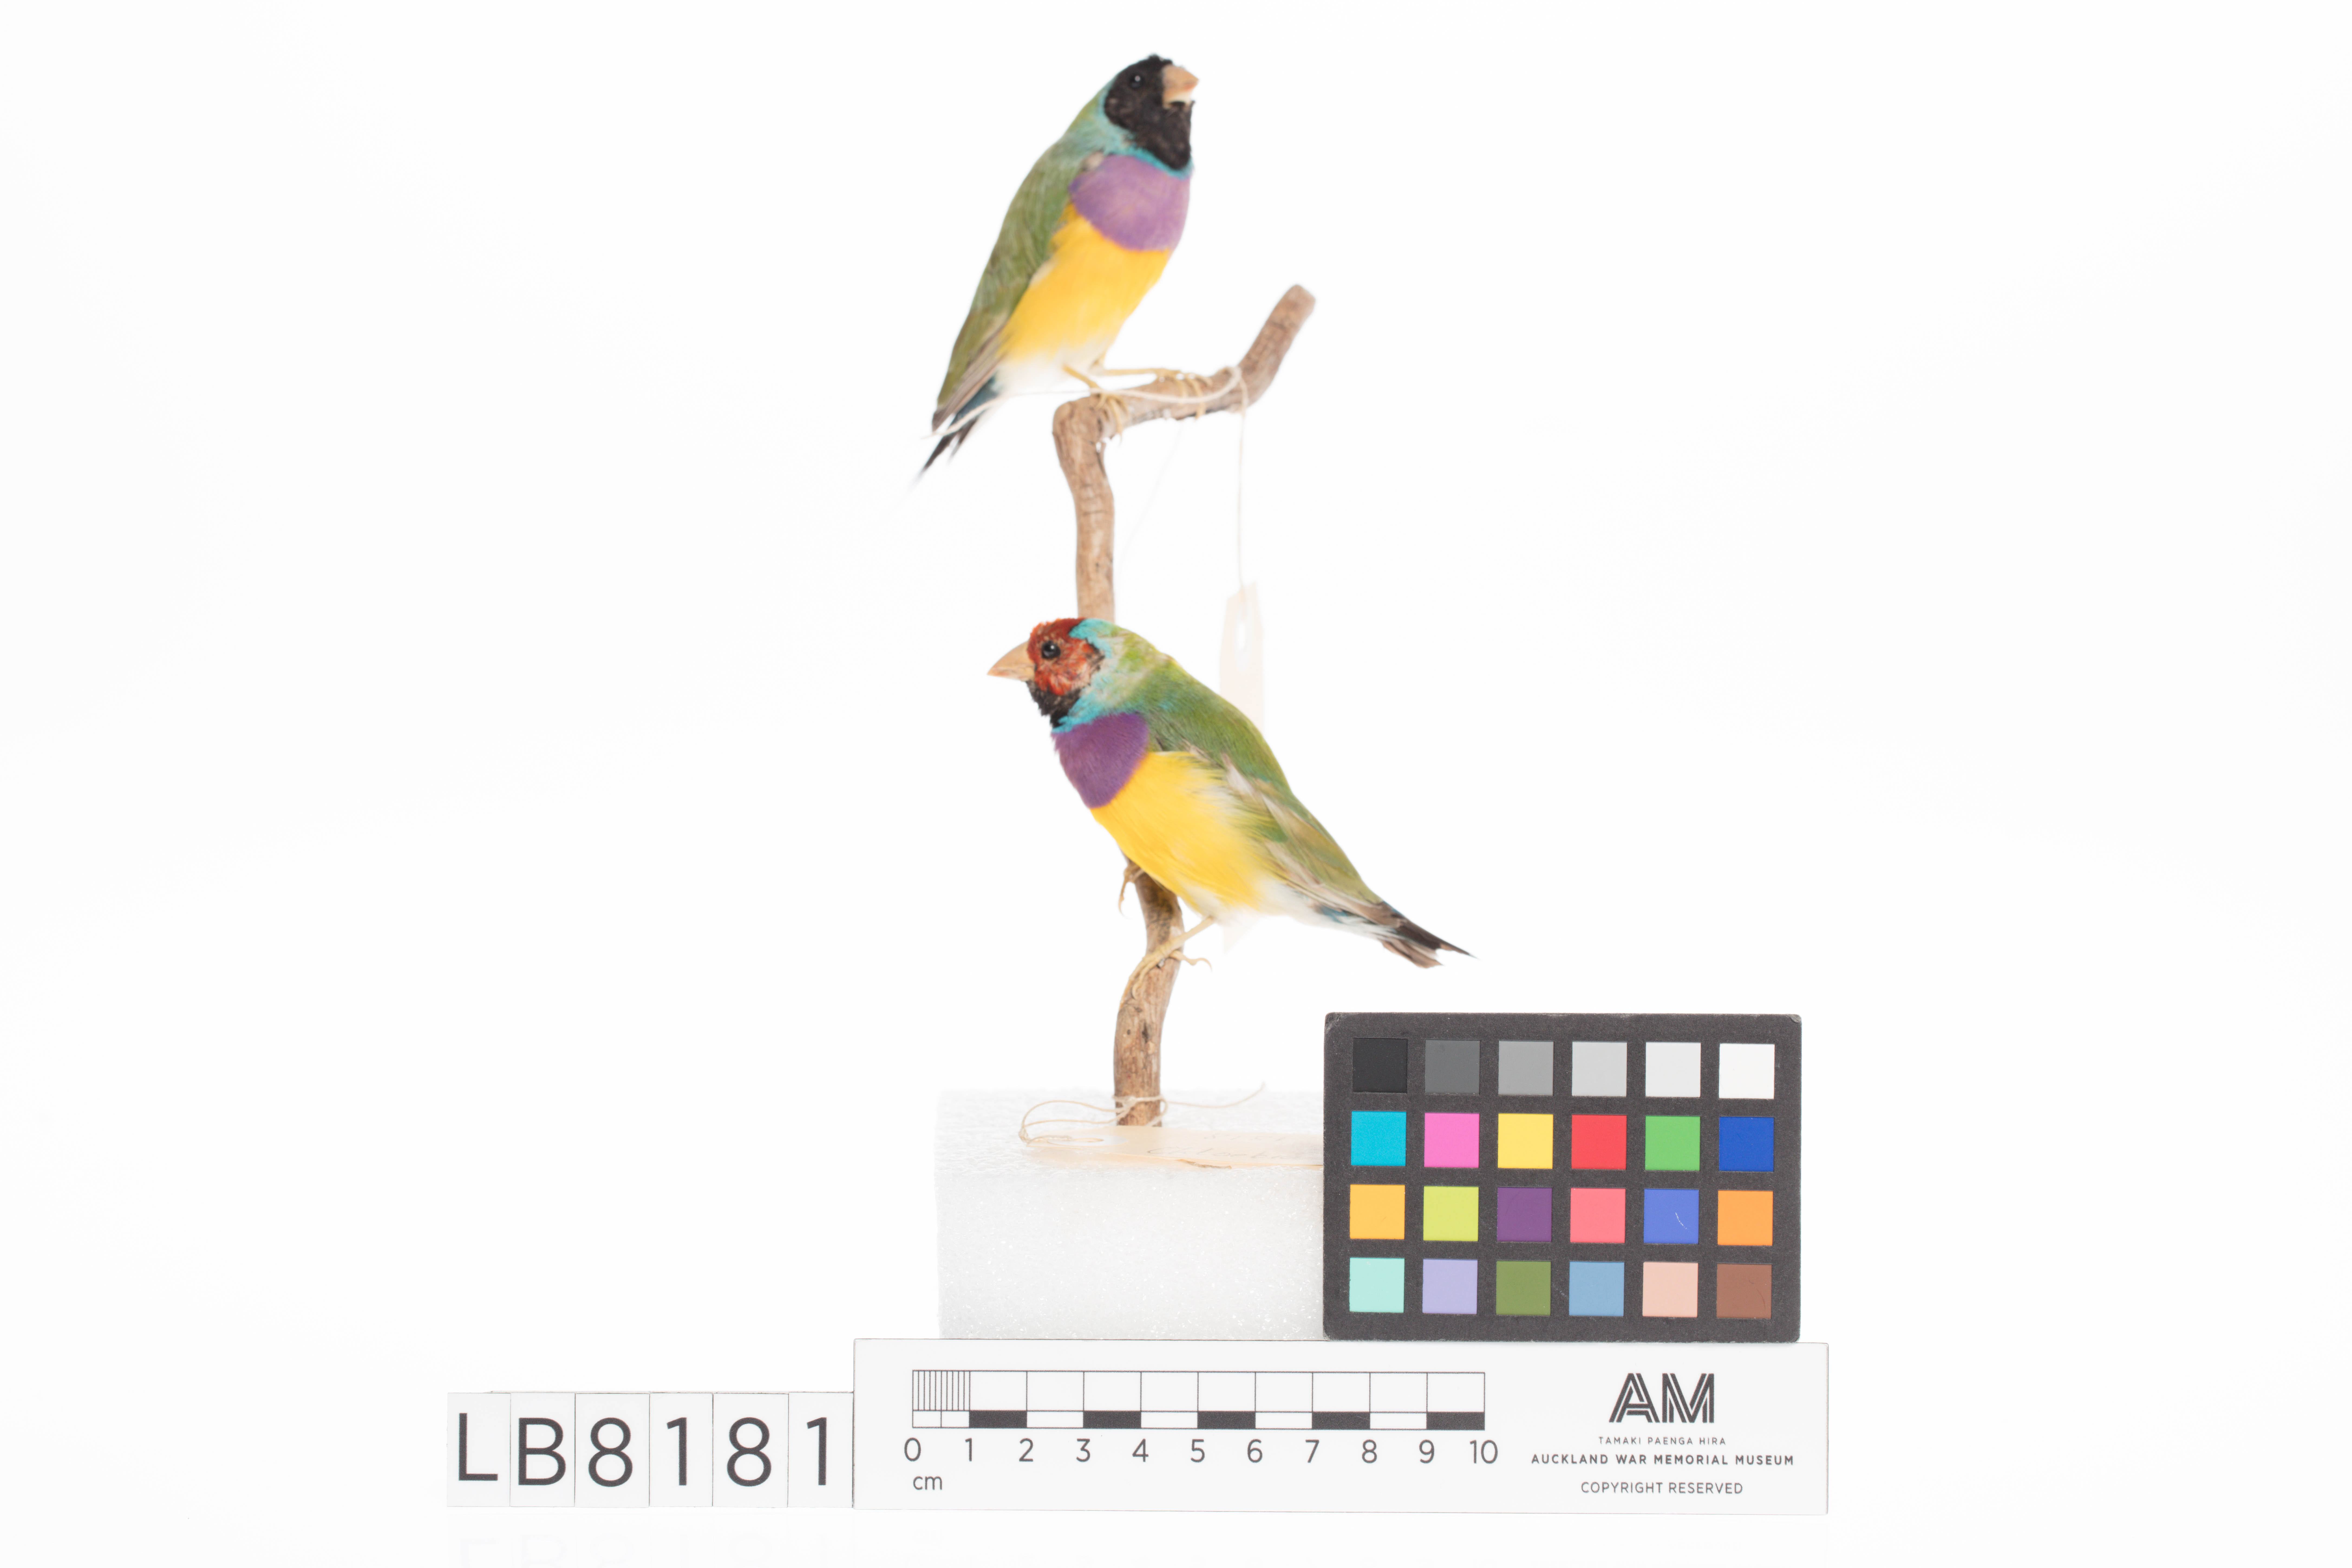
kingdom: Animalia
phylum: Chordata
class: Aves
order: Passeriformes
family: Estrildidae
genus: Erythrura
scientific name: Erythrura gouldiae
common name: Gouldian finch
